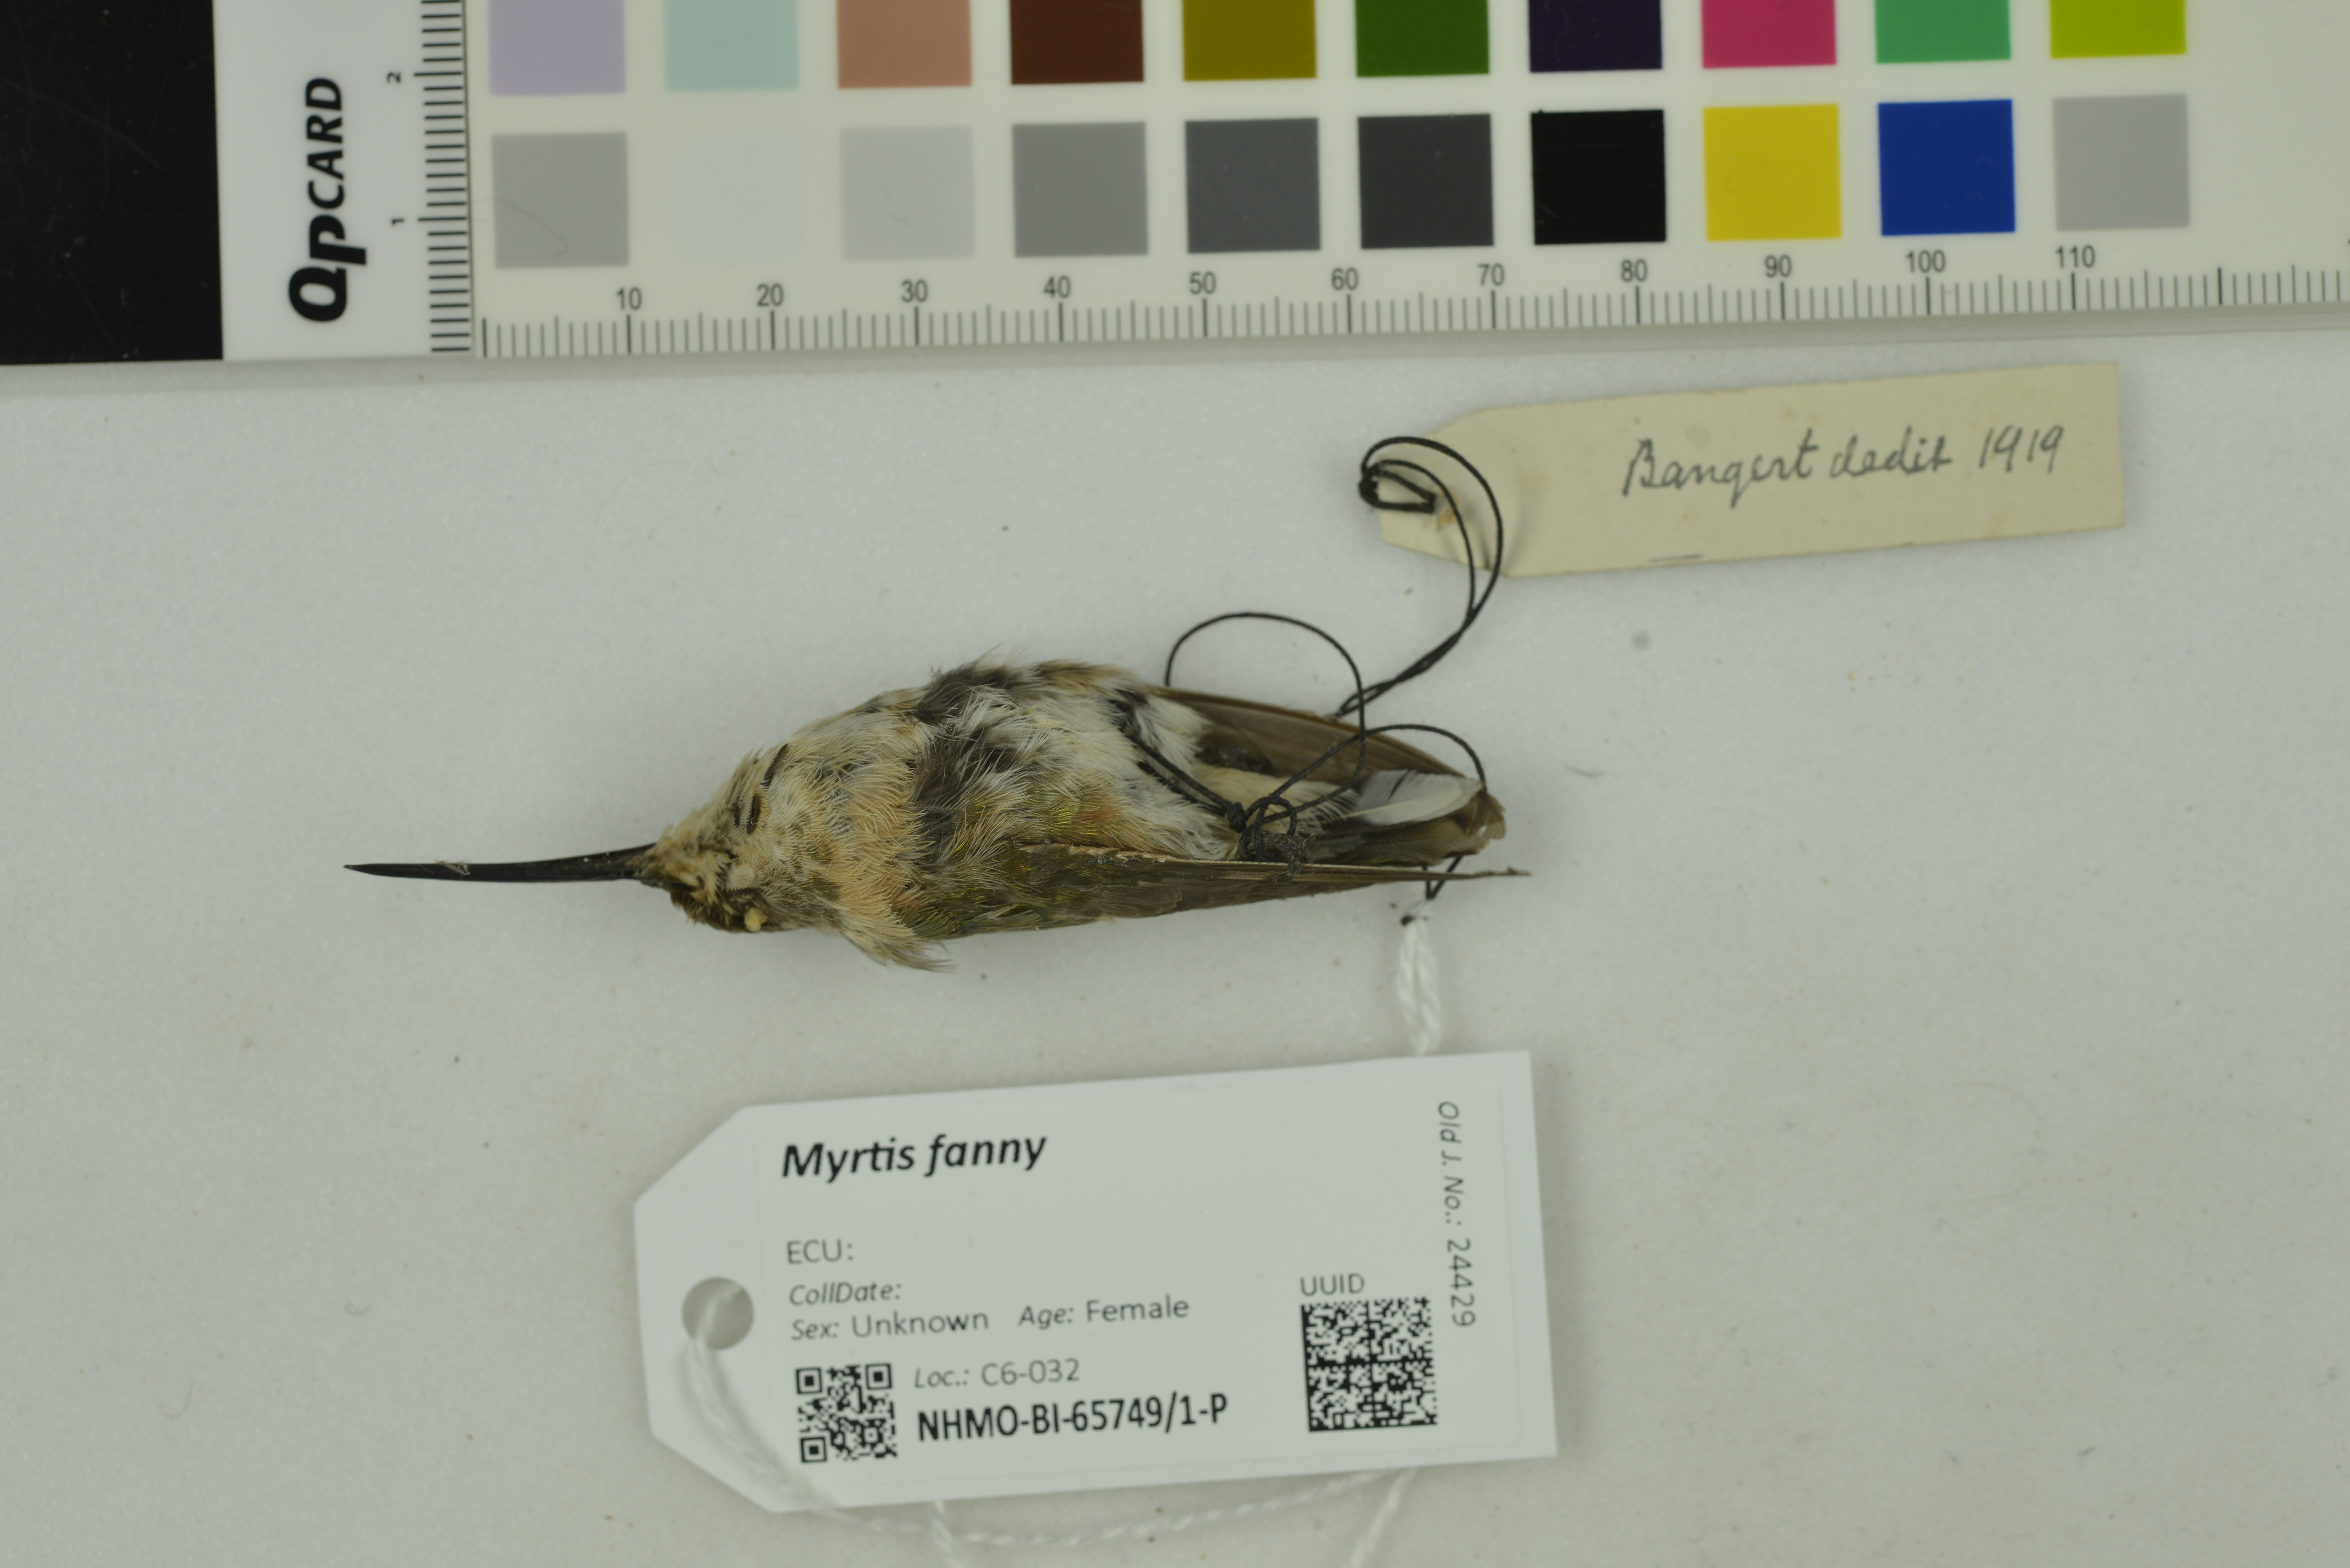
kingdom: Animalia
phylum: Chordata
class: Aves
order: Apodiformes
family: Trochilidae
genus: Myrtis
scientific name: Myrtis fanny
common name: Purple-collared woodstar
